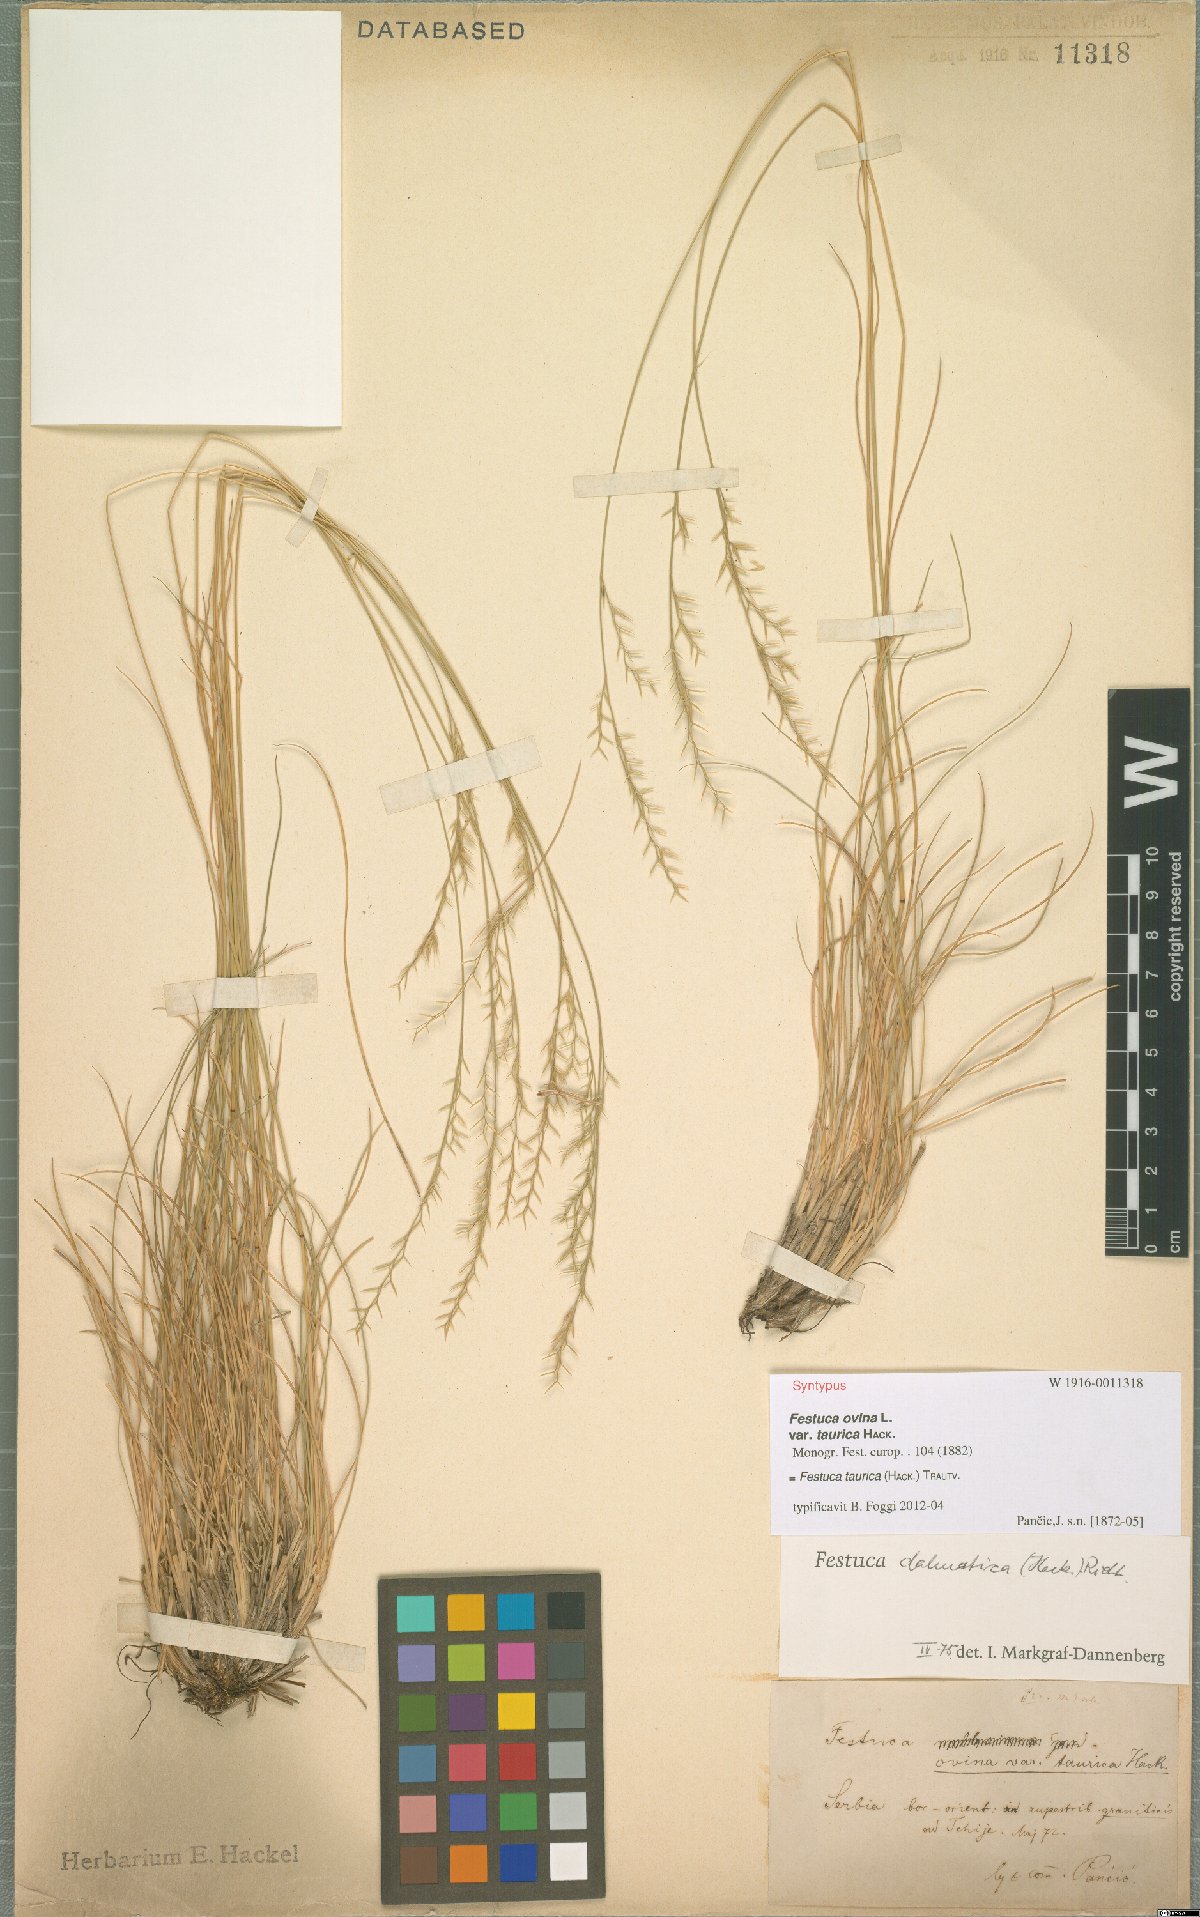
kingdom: Plantae
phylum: Tracheophyta
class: Liliopsida
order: Poales
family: Poaceae
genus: Festuca
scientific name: Festuca taurica
